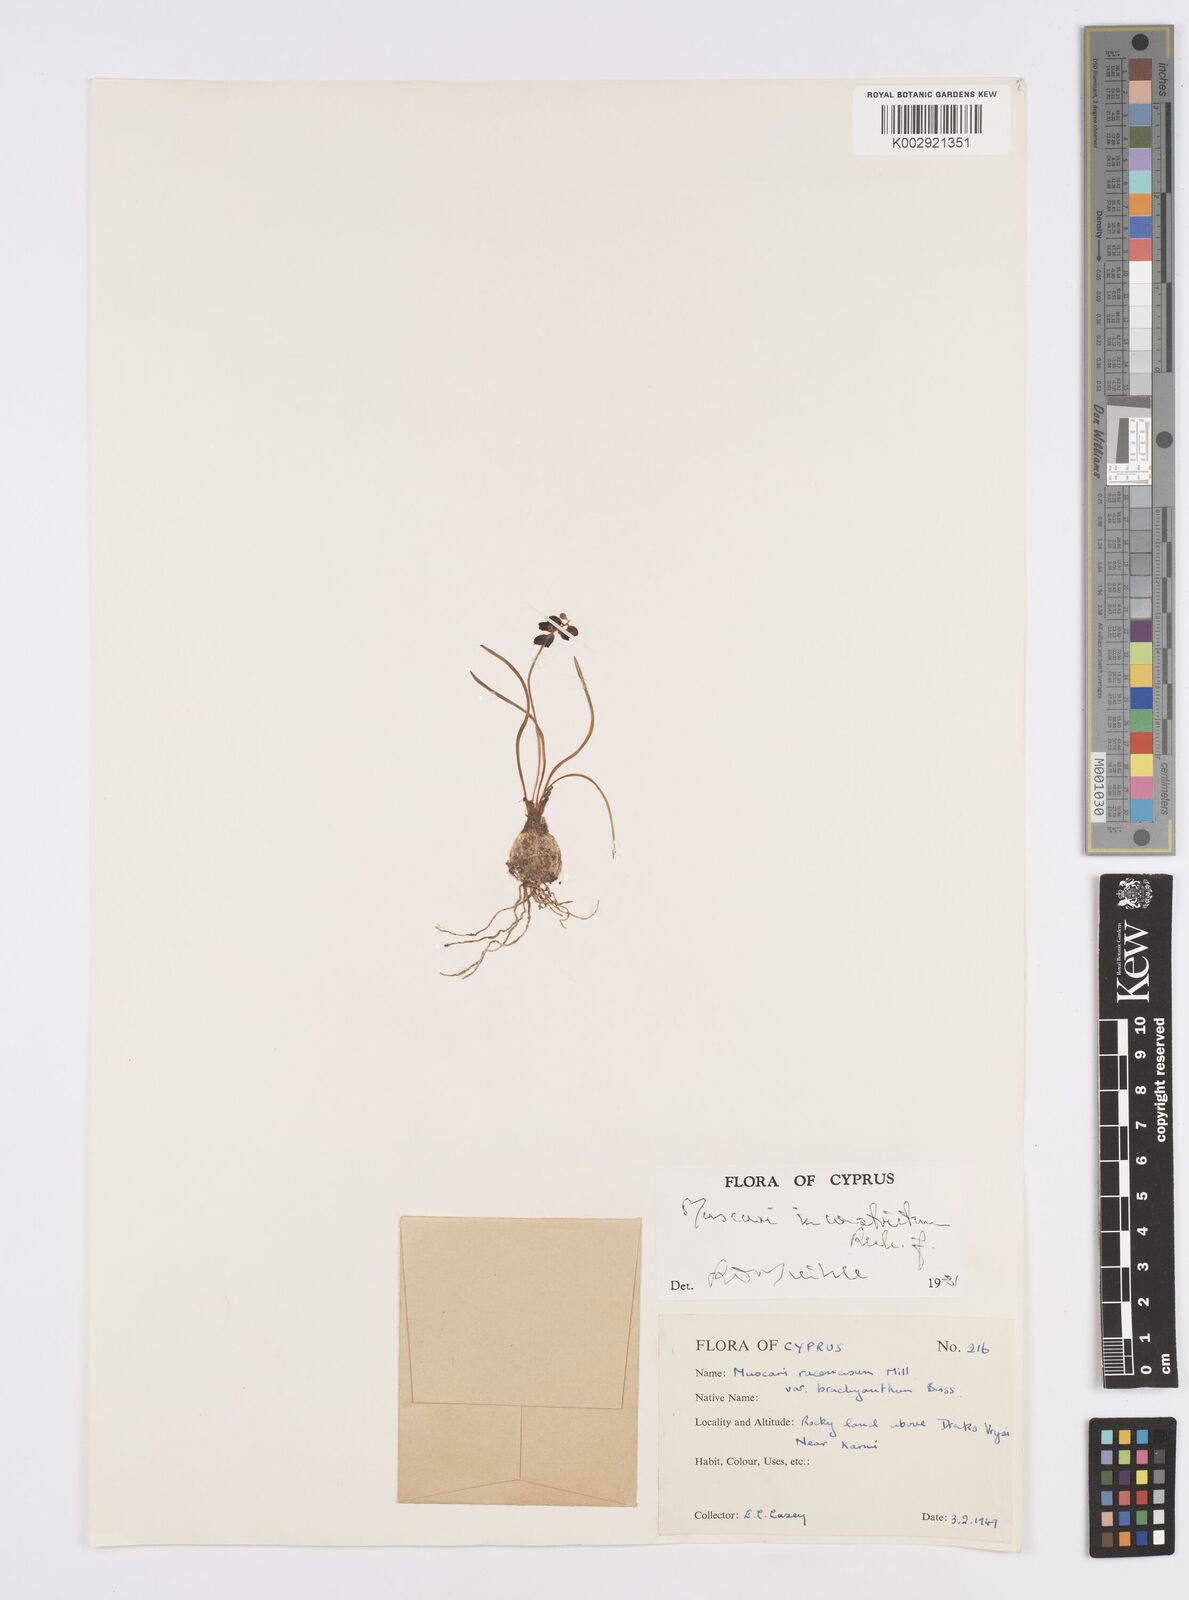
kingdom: Plantae
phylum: Tracheophyta
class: Liliopsida
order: Asparagales
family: Asparagaceae
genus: Muscari
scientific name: Muscari inconstrictum
